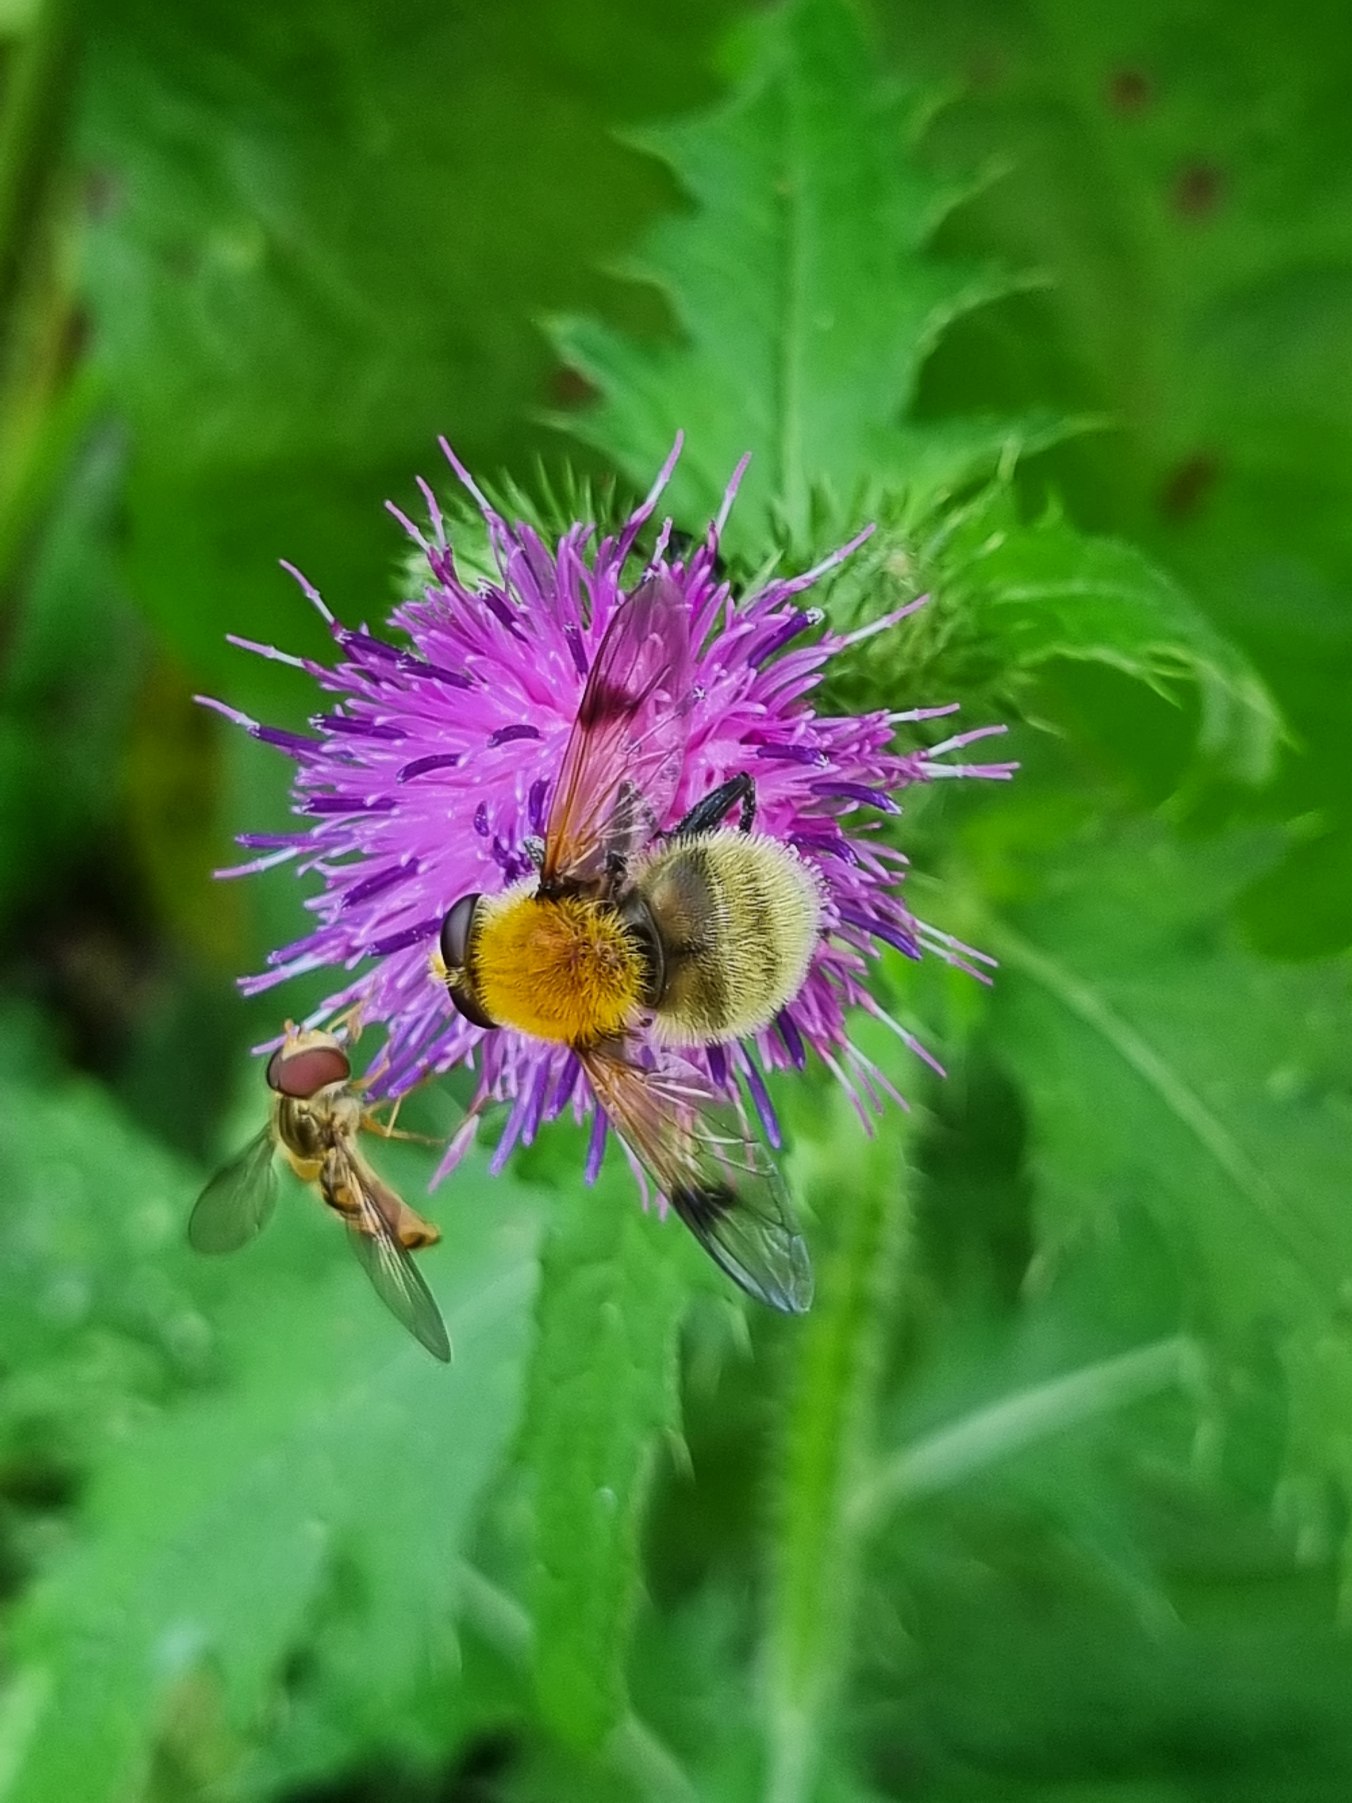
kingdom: Animalia
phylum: Arthropoda
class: Insecta
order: Diptera
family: Syrphidae
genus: Sericomyia
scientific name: Sericomyia superbiens
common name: Brun bjørnesvirreflue
